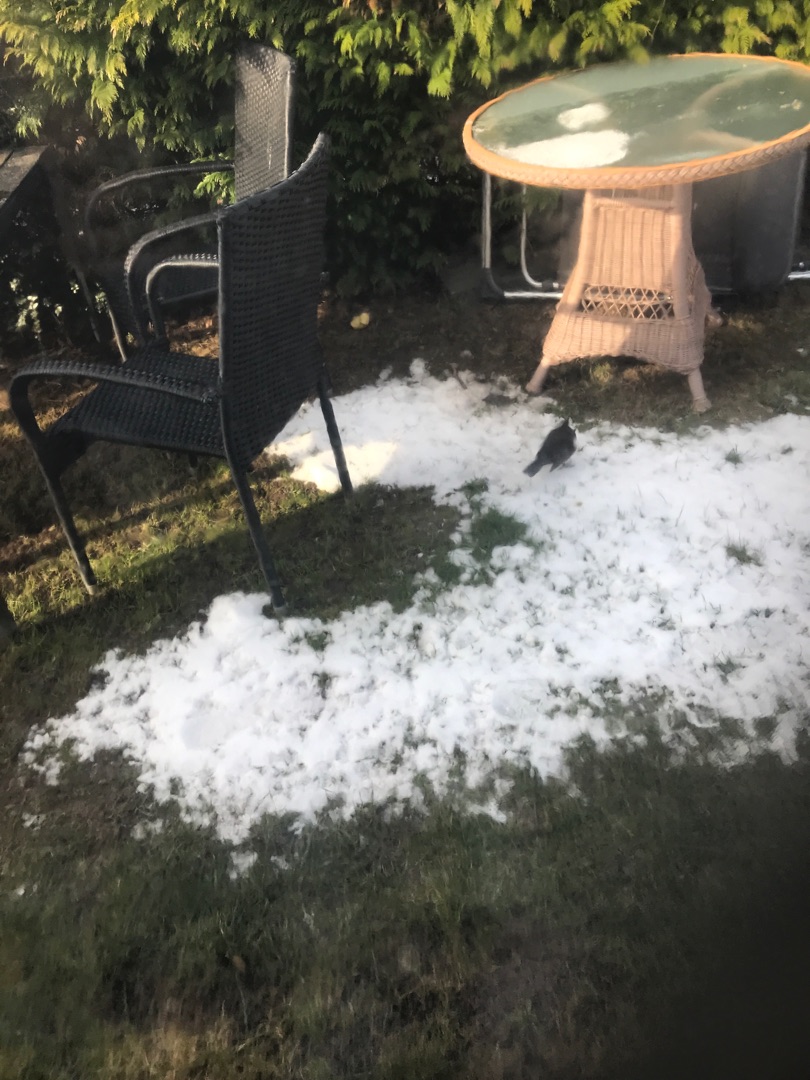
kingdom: Animalia
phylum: Chordata
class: Aves
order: Passeriformes
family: Turdidae
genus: Turdus
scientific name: Turdus merula
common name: Solsort
